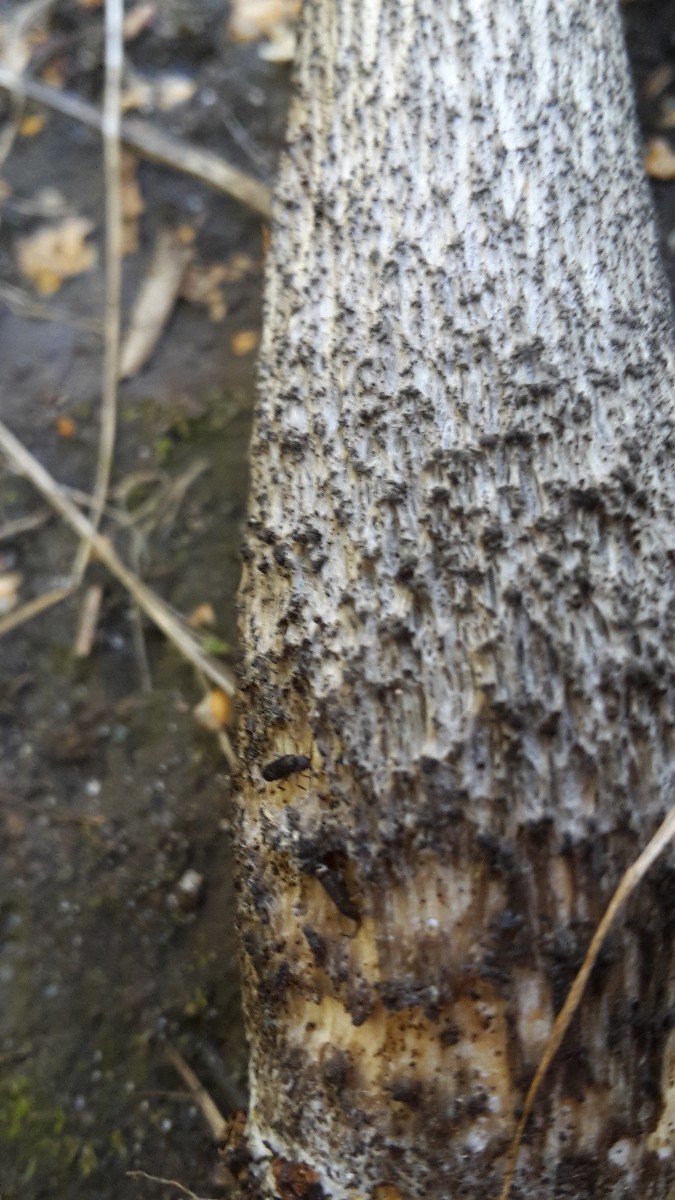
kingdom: Fungi
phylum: Basidiomycota
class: Agaricomycetes
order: Boletales
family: Boletaceae
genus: Leccinum
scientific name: Leccinum scabrum
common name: brun skælrørhat
